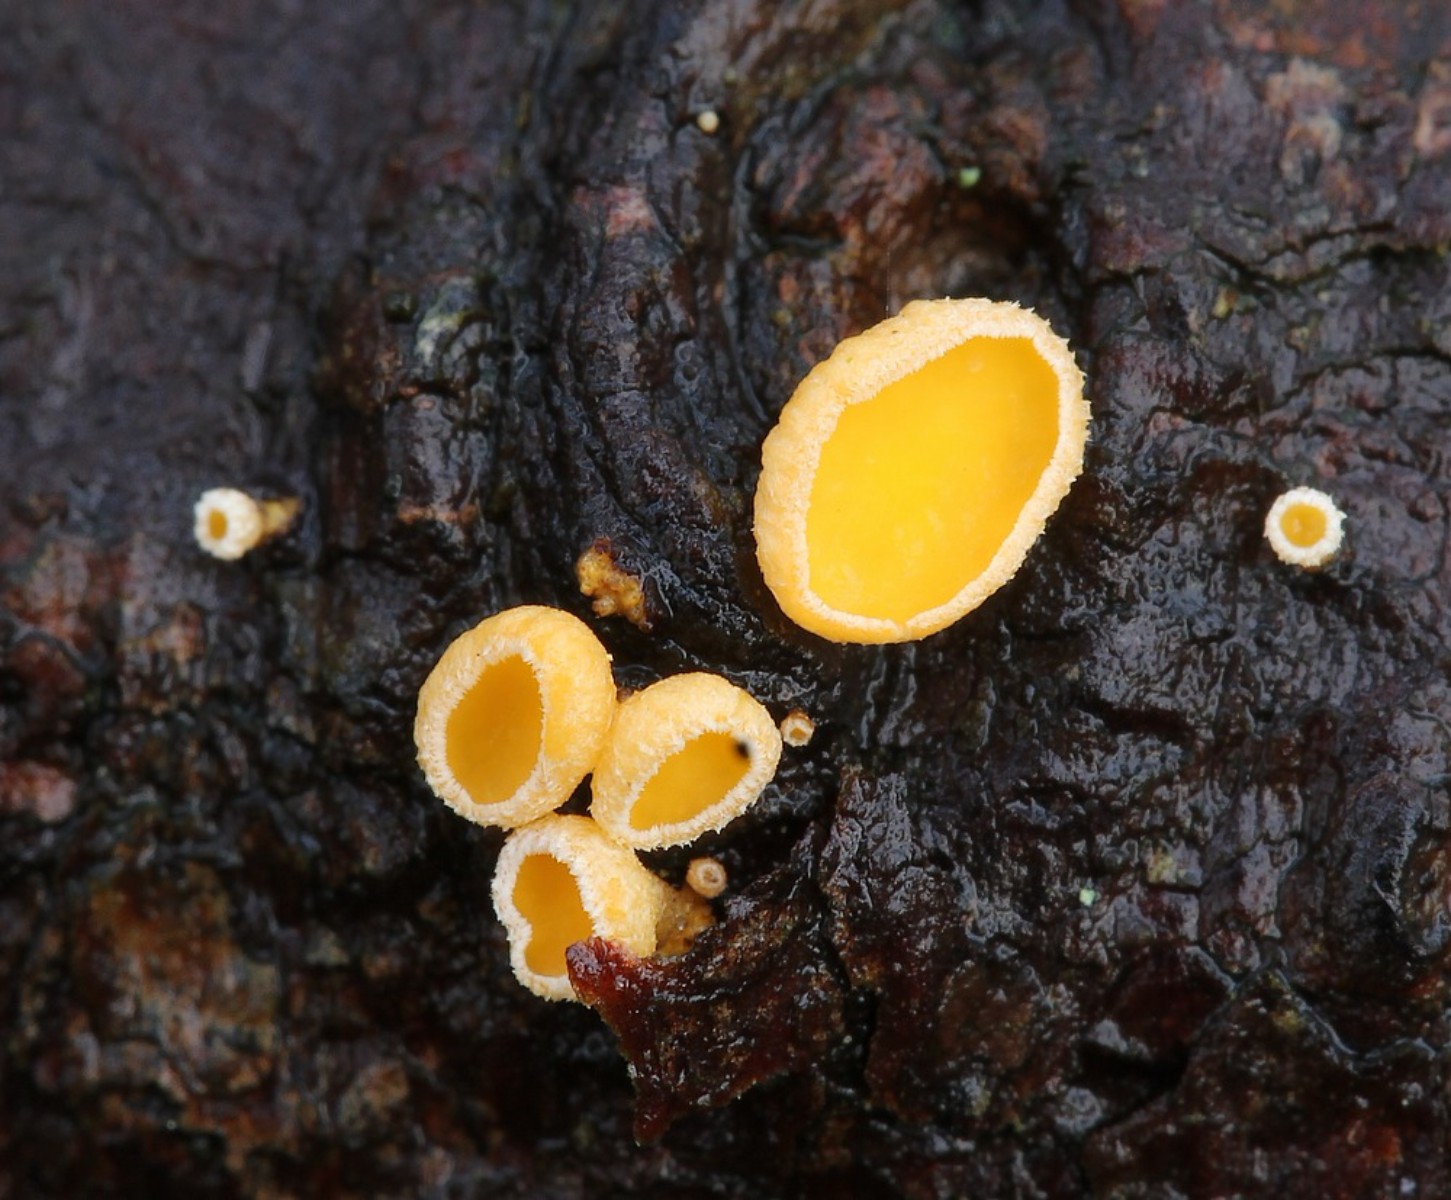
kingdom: Fungi
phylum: Ascomycota
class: Leotiomycetes
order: Helotiales
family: Lachnaceae
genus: Lachnellula
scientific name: Lachnellula
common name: frynseskive
